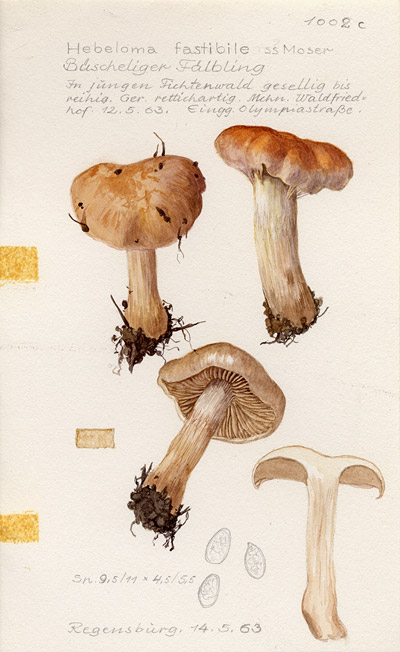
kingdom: Fungi
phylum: Basidiomycota
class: Agaricomycetes
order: Agaricales
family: Hymenogastraceae
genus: Hebeloma
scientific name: Hebeloma
